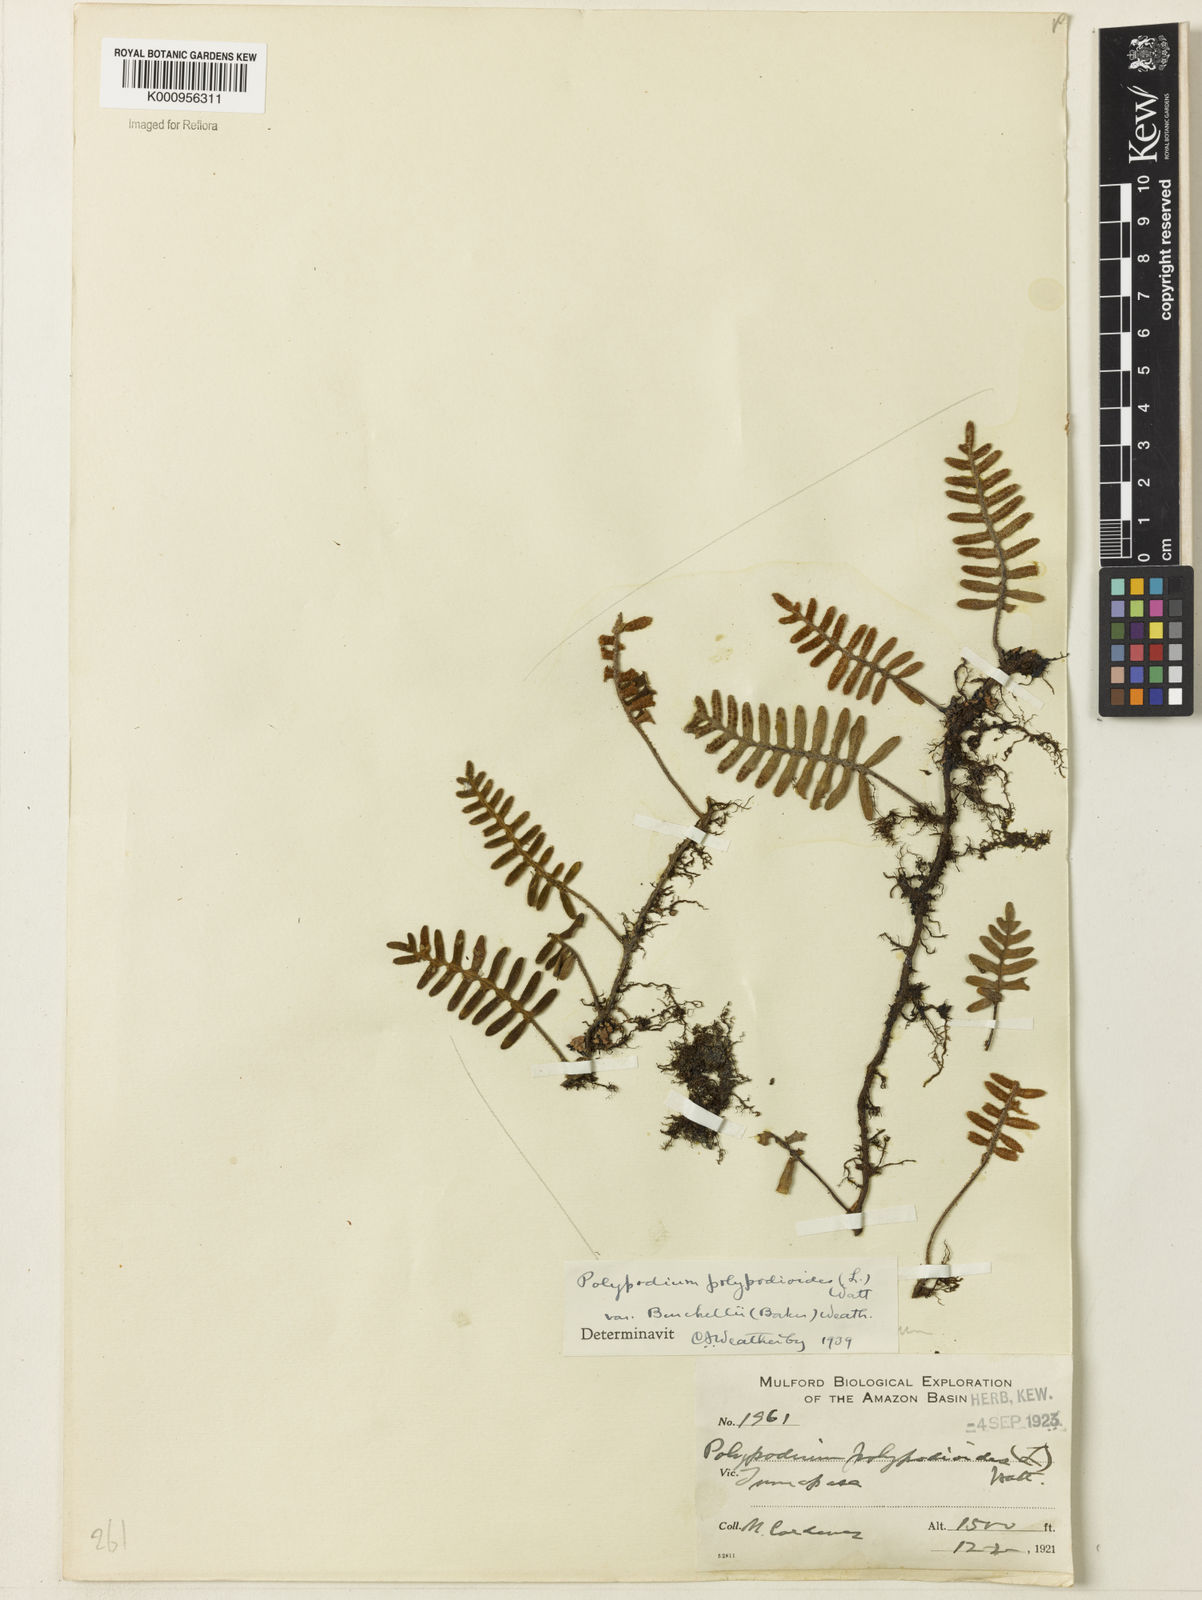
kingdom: Plantae
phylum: Tracheophyta
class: Polypodiopsida
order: Polypodiales
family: Polypodiaceae
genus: Pleopeltis
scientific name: Pleopeltis burchellii
